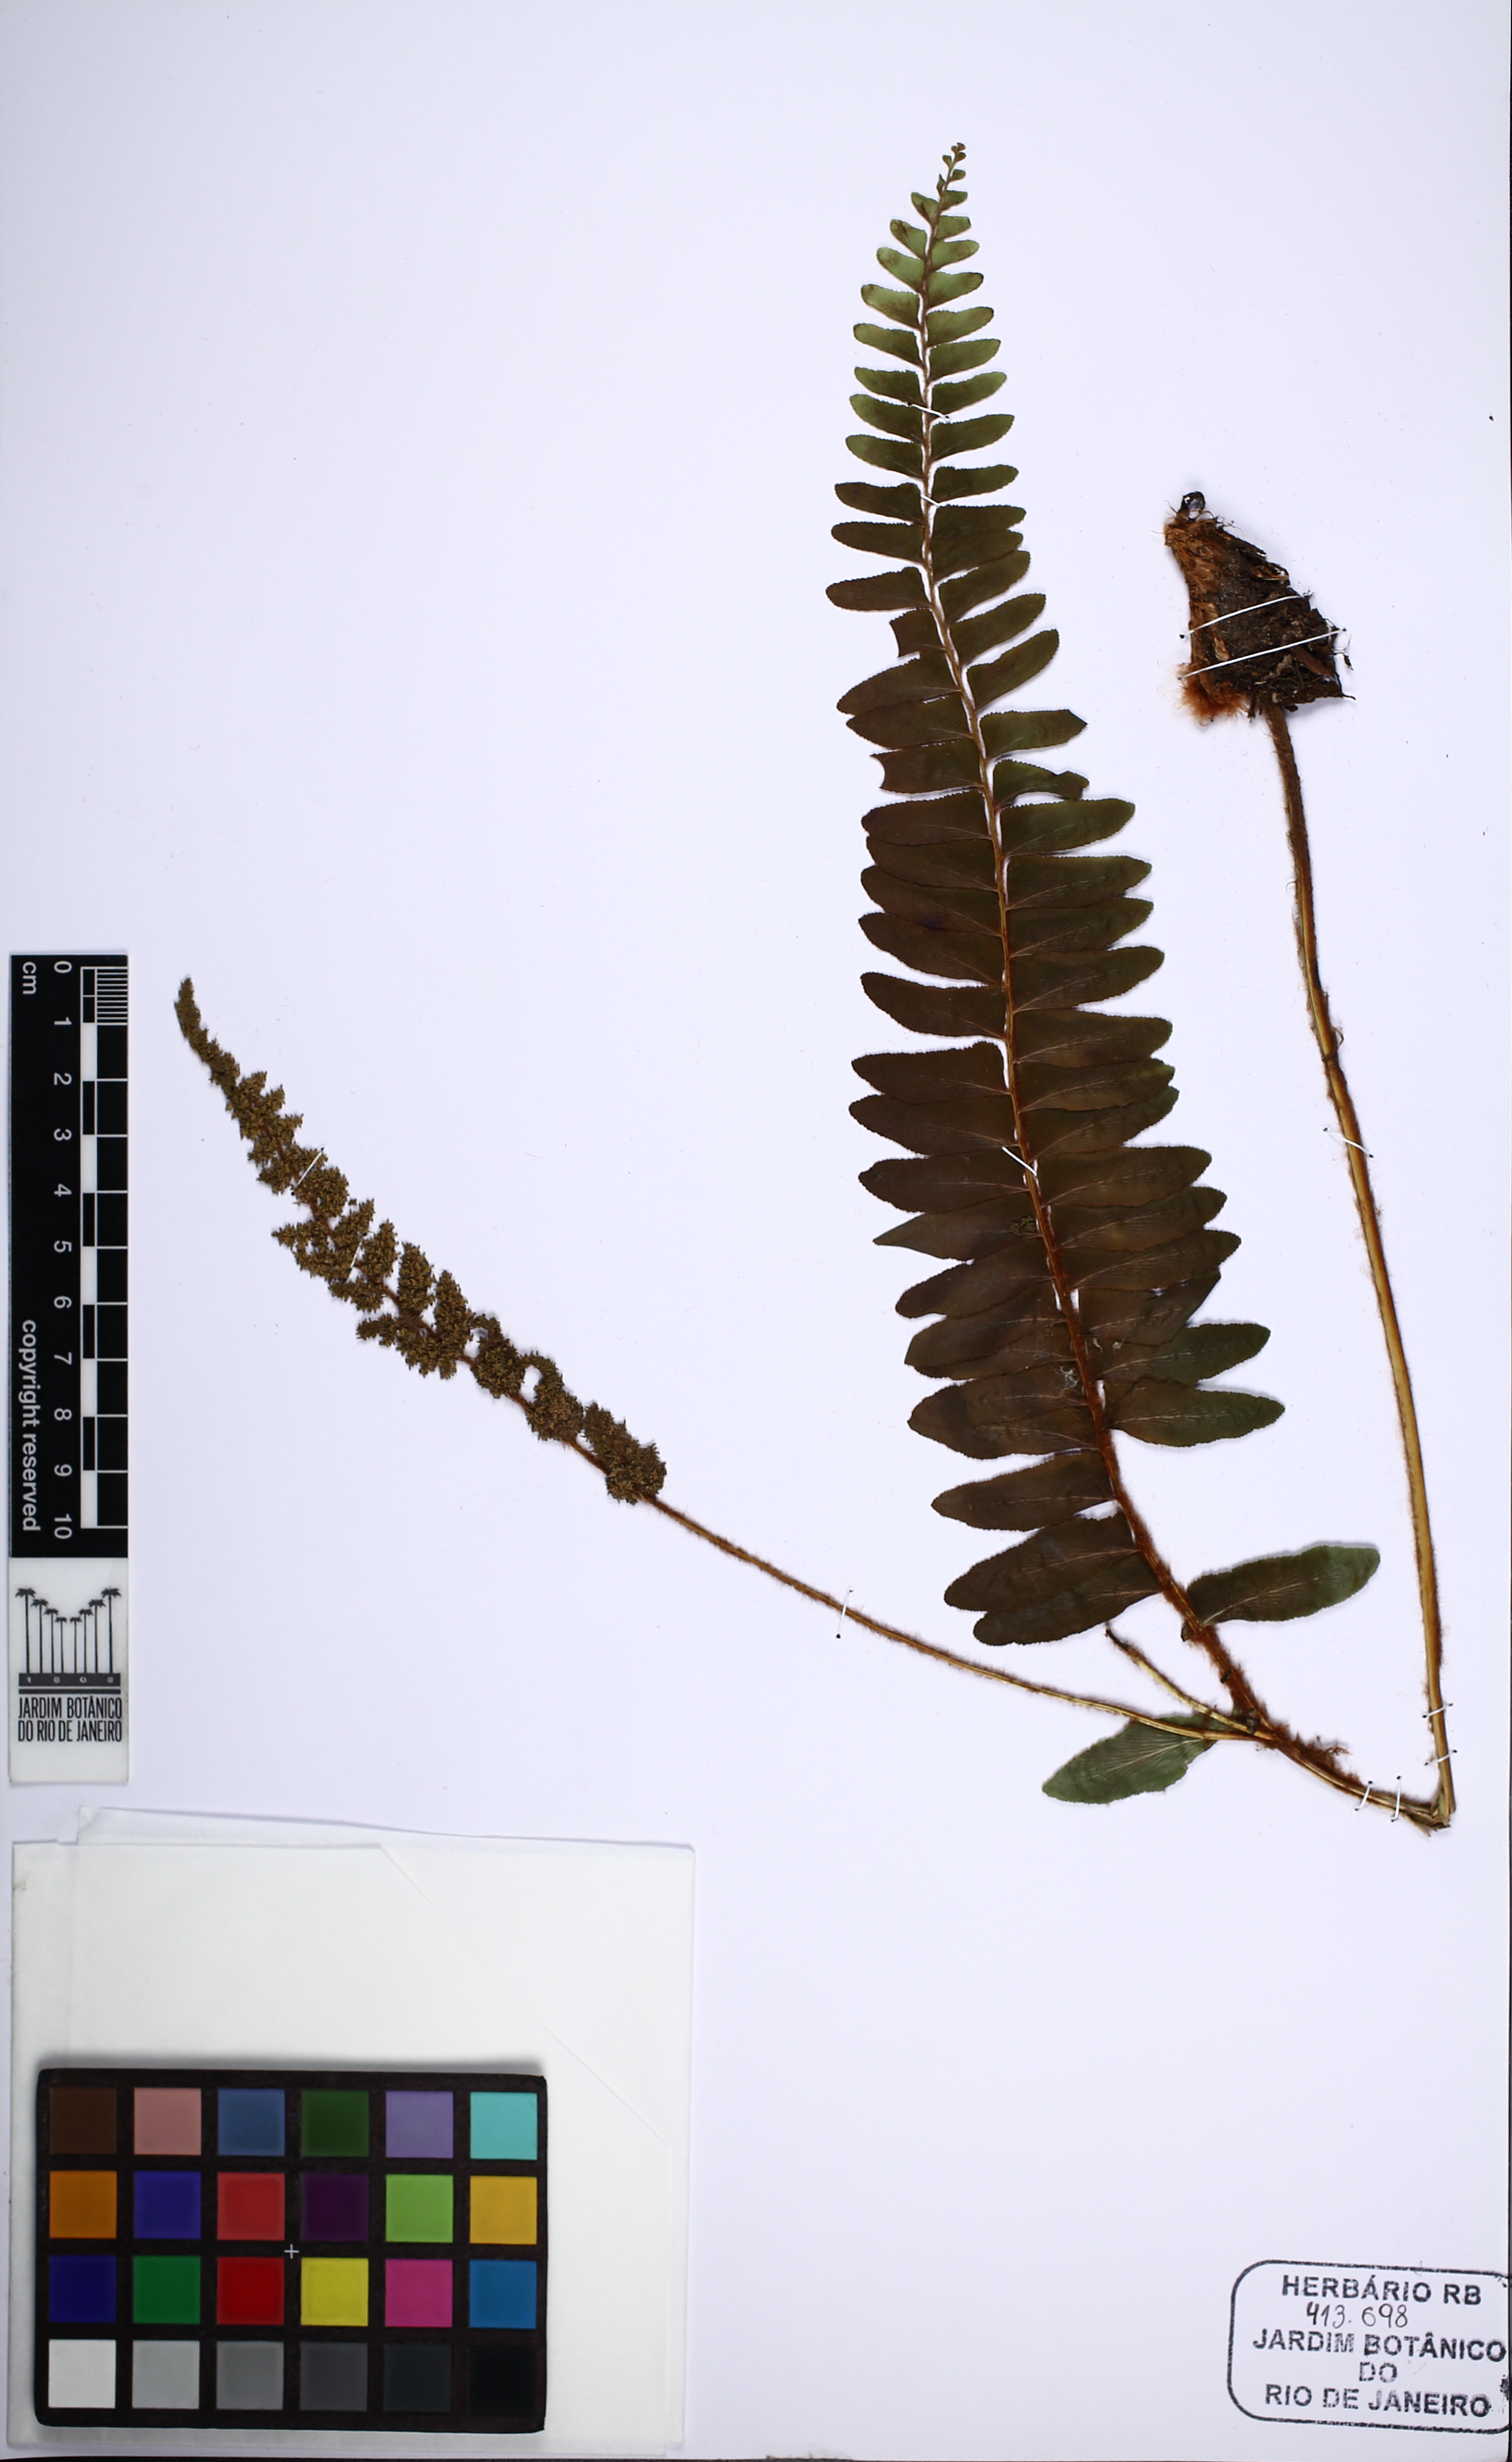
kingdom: Plantae
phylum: Tracheophyta
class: Polypodiopsida
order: Schizaeales
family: Anemiaceae
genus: Anemia
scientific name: Anemia mandiocana
